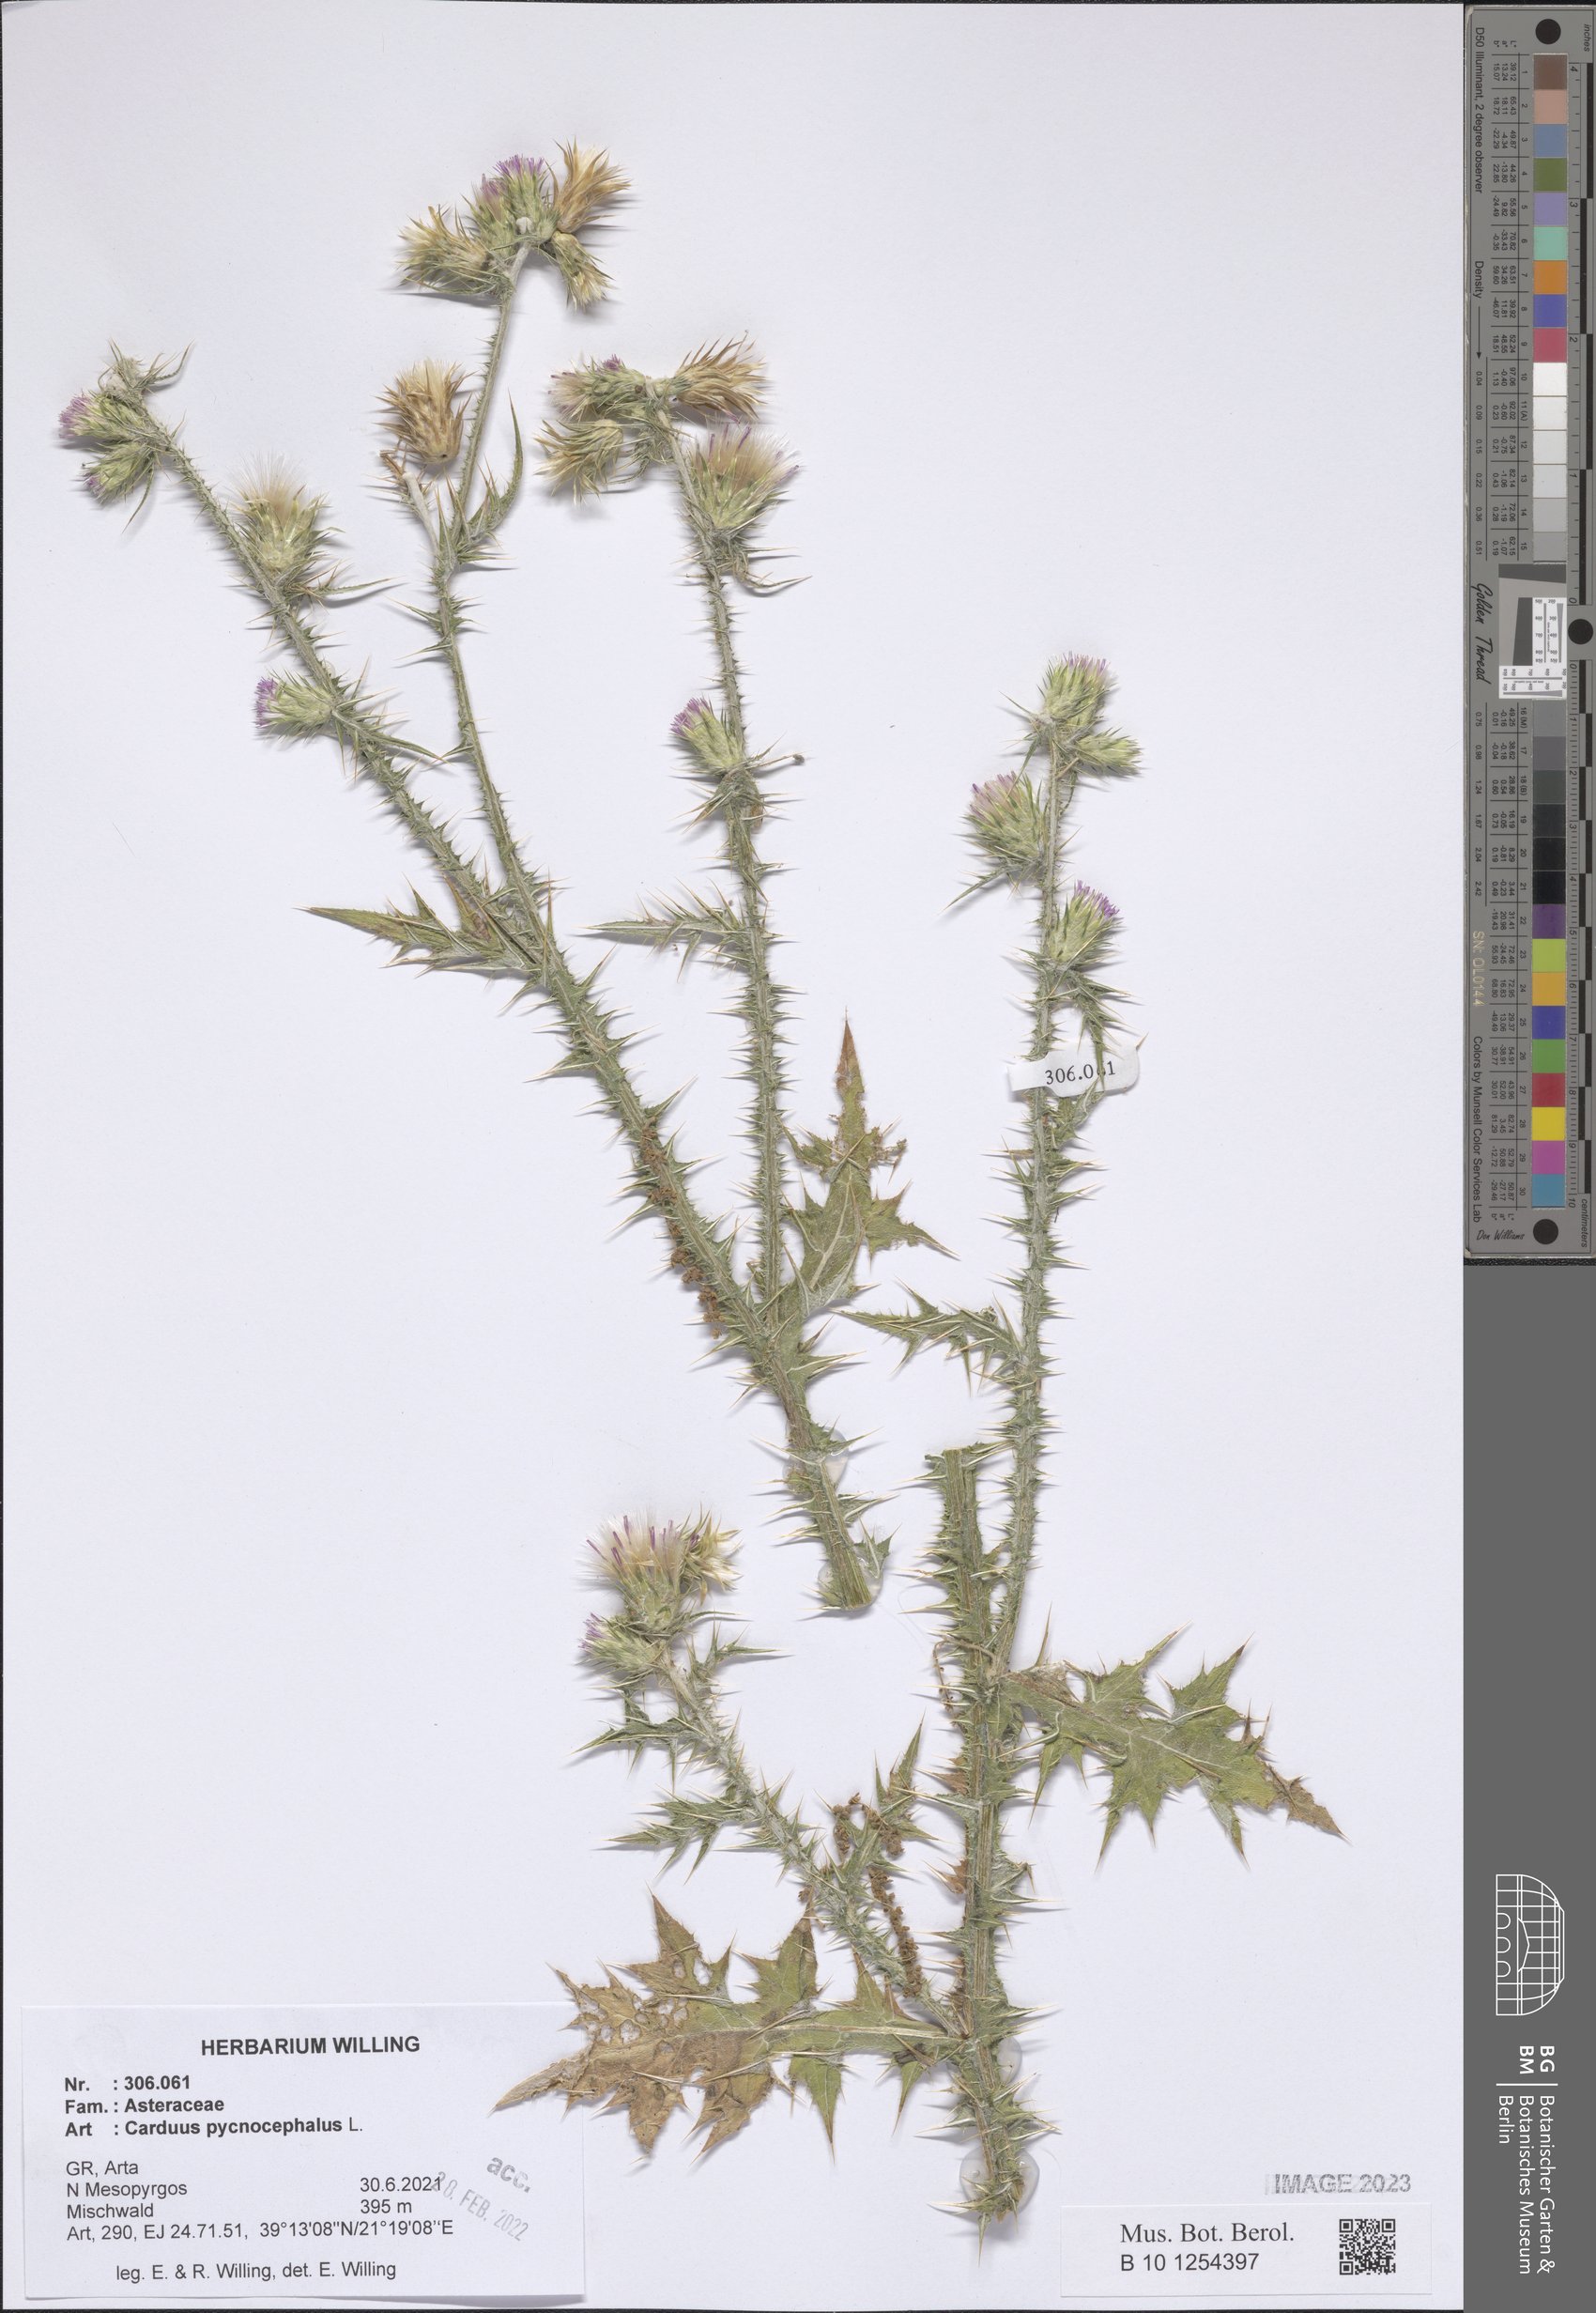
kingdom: Plantae
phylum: Tracheophyta
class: Magnoliopsida
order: Asterales
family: Asteraceae
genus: Carduus
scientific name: Carduus pycnocephalus
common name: Plymouth thistle
